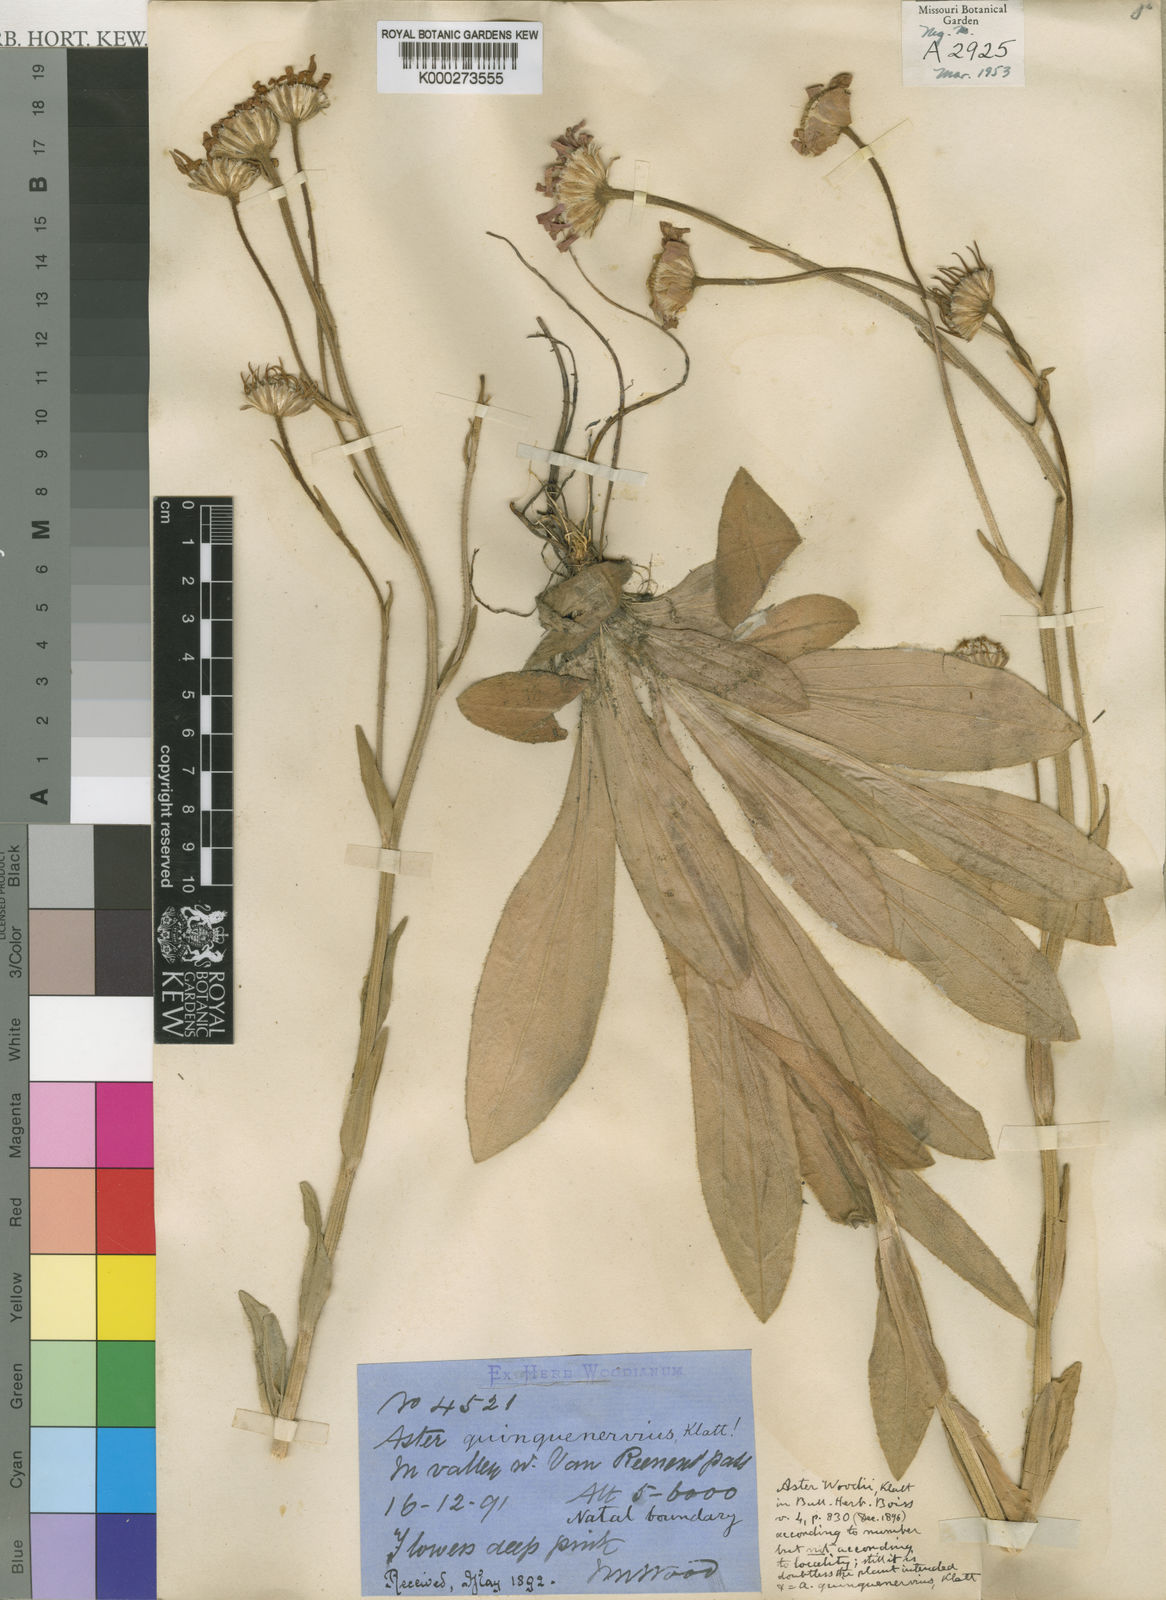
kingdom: Plantae
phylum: Tracheophyta
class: Magnoliopsida
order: Asterales
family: Asteraceae
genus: Felicia
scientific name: Felicia quinquenervia
